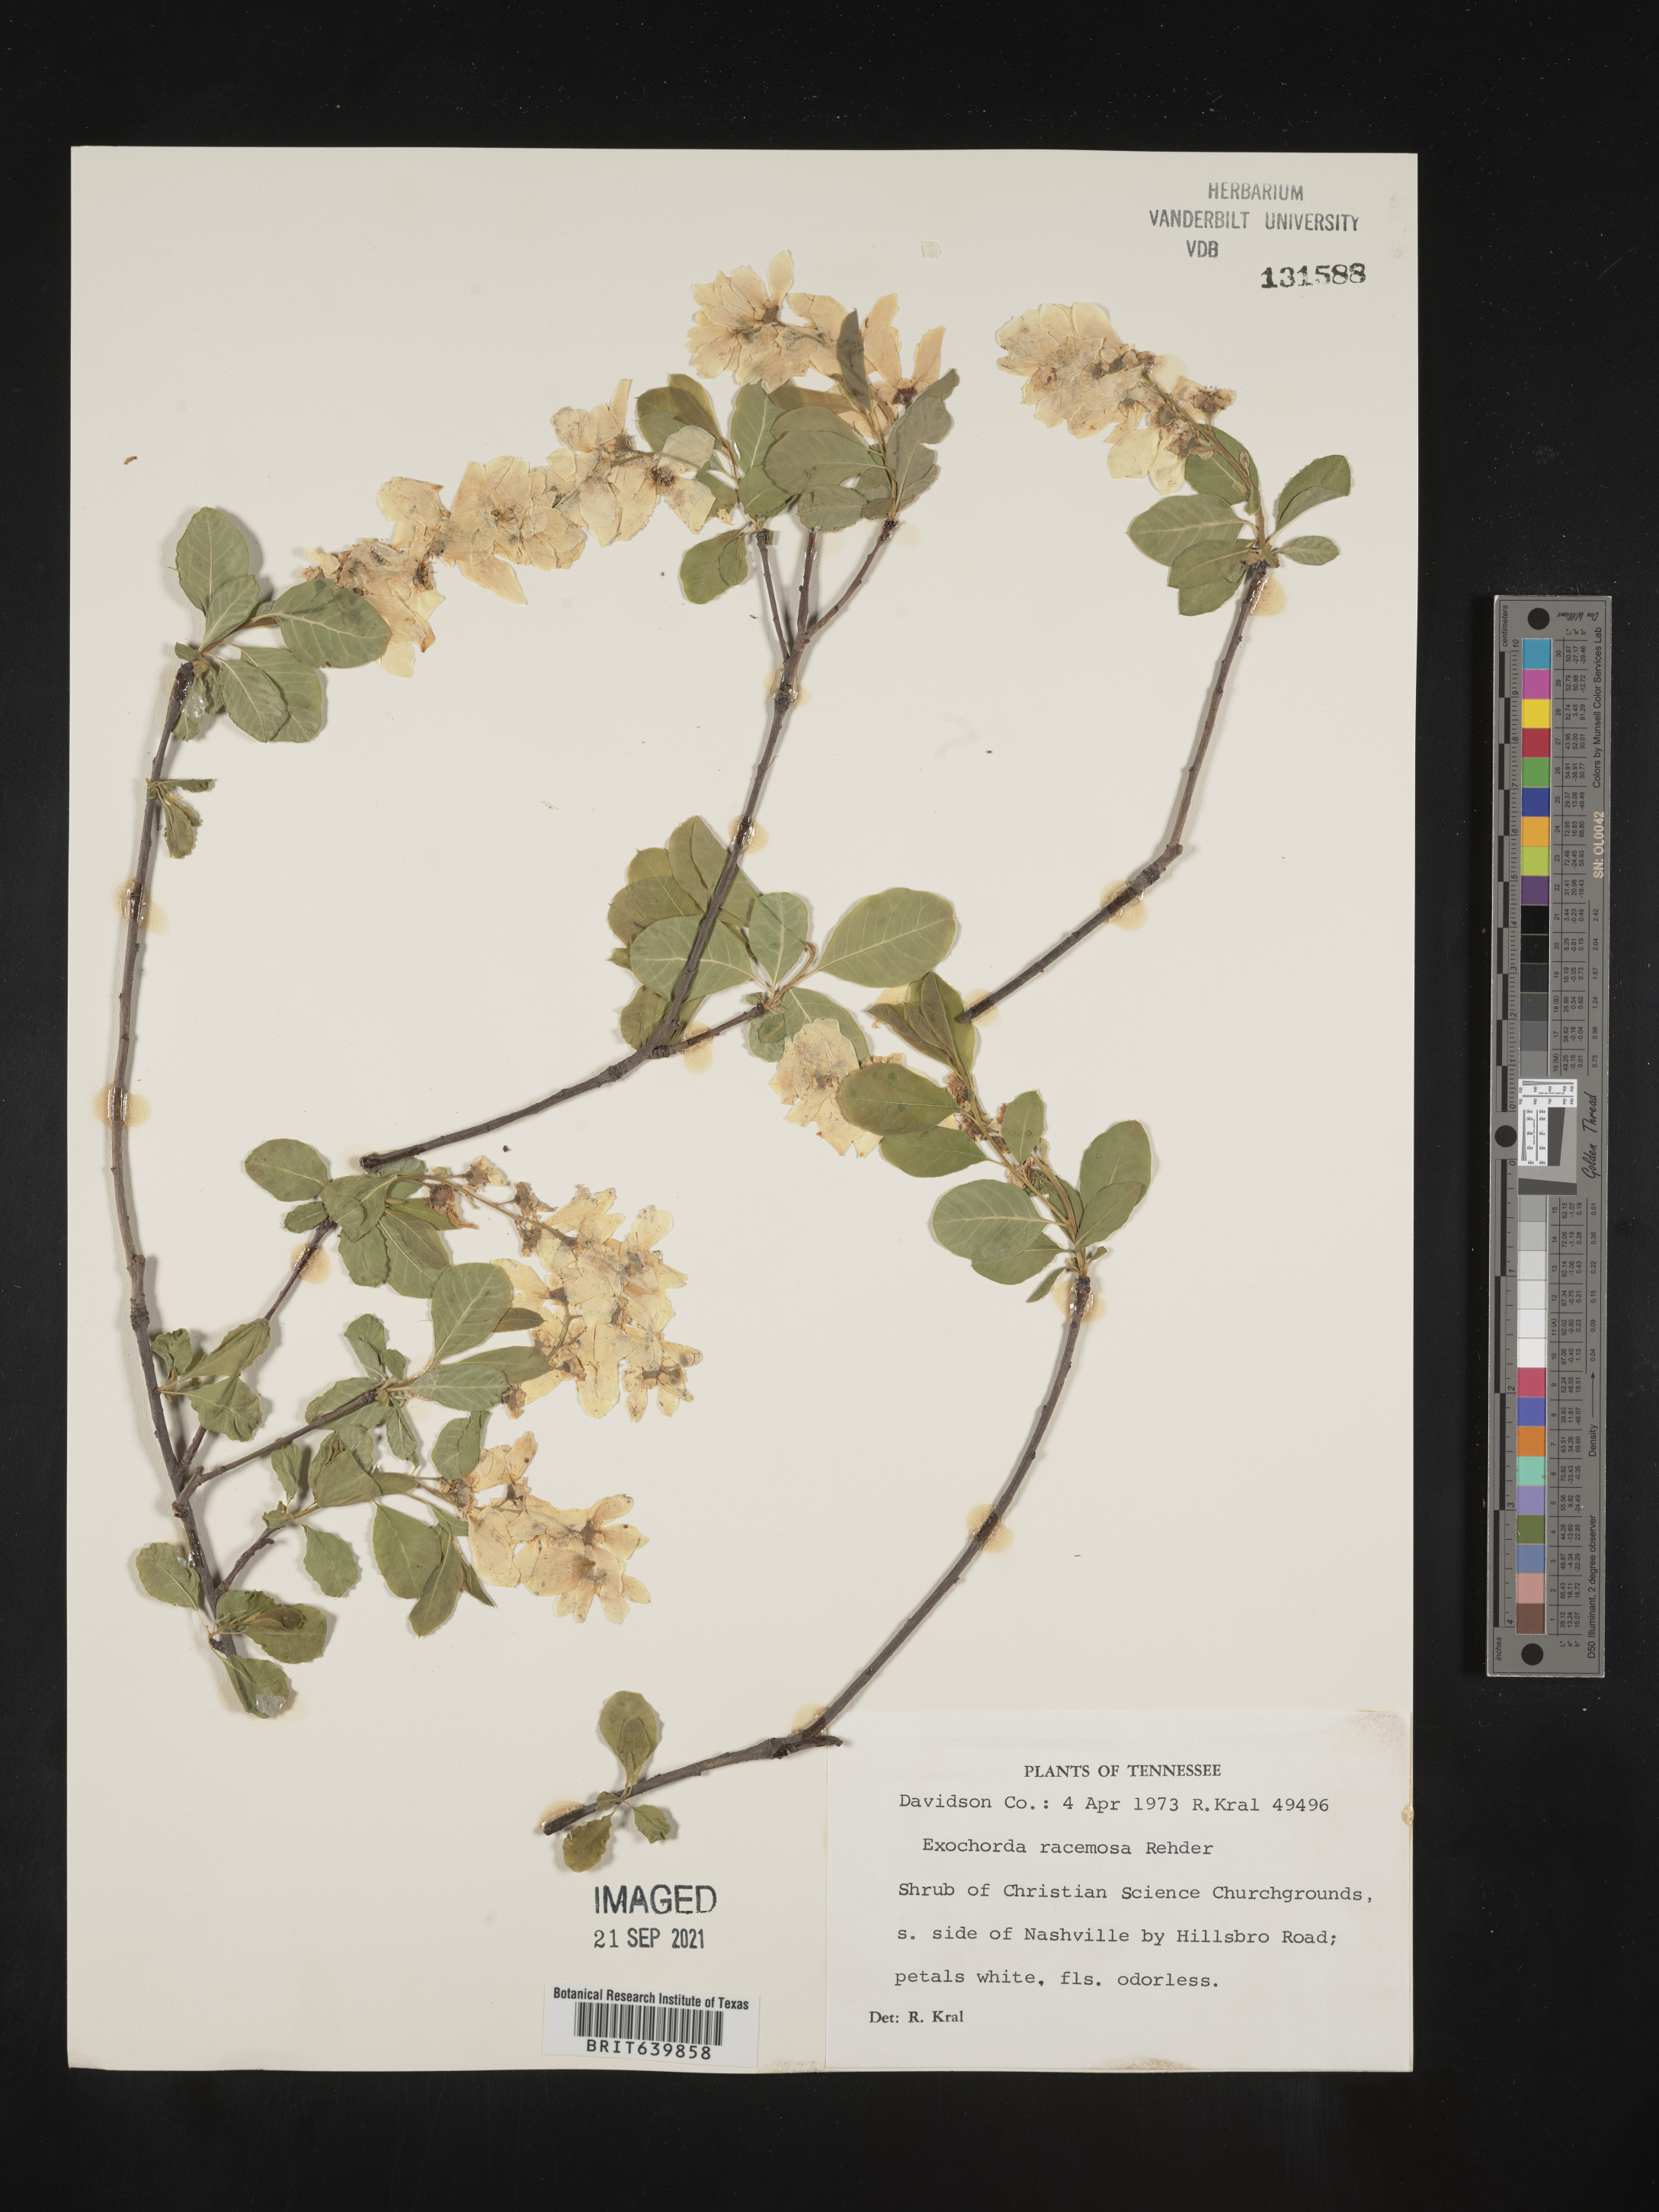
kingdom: Plantae
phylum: Tracheophyta
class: Magnoliopsida
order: Rosales
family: Rosaceae
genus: Exochorda
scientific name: Exochorda
